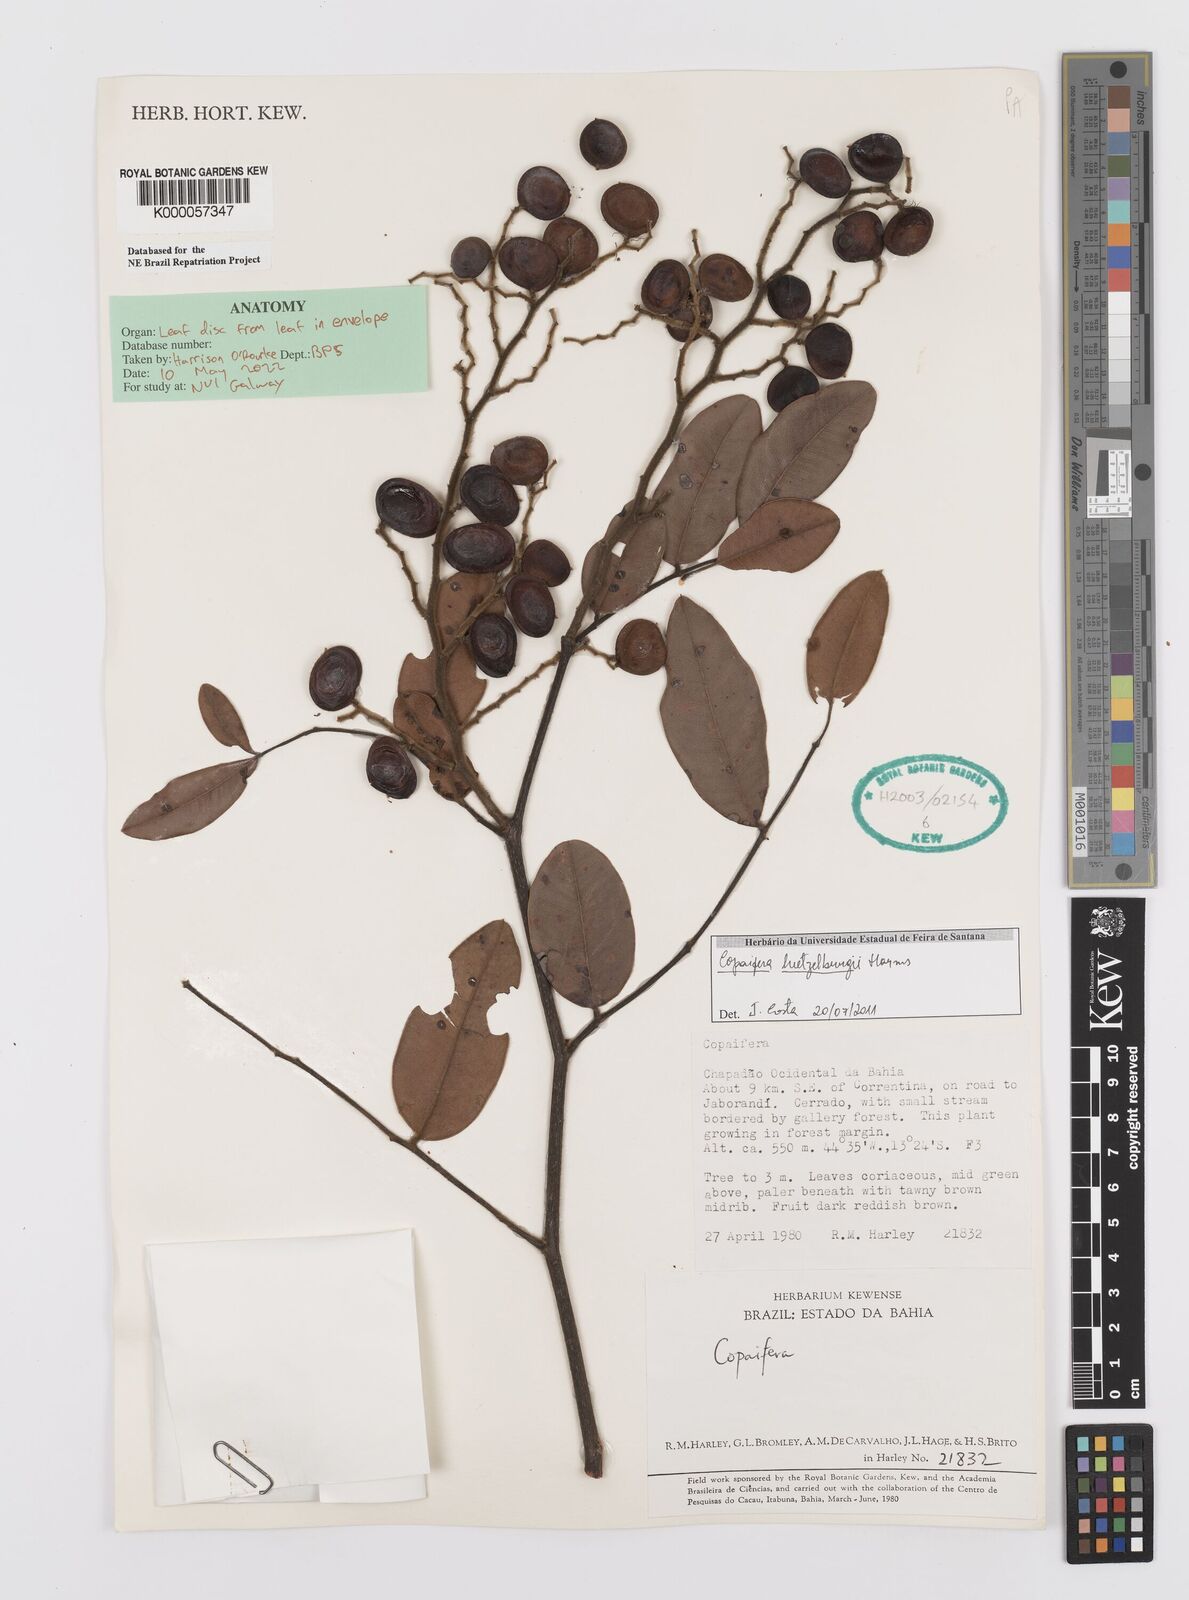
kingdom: Plantae
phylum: Tracheophyta
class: Magnoliopsida
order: Fabales
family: Fabaceae
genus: Copaifera
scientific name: Copaifera luetzelburgii
